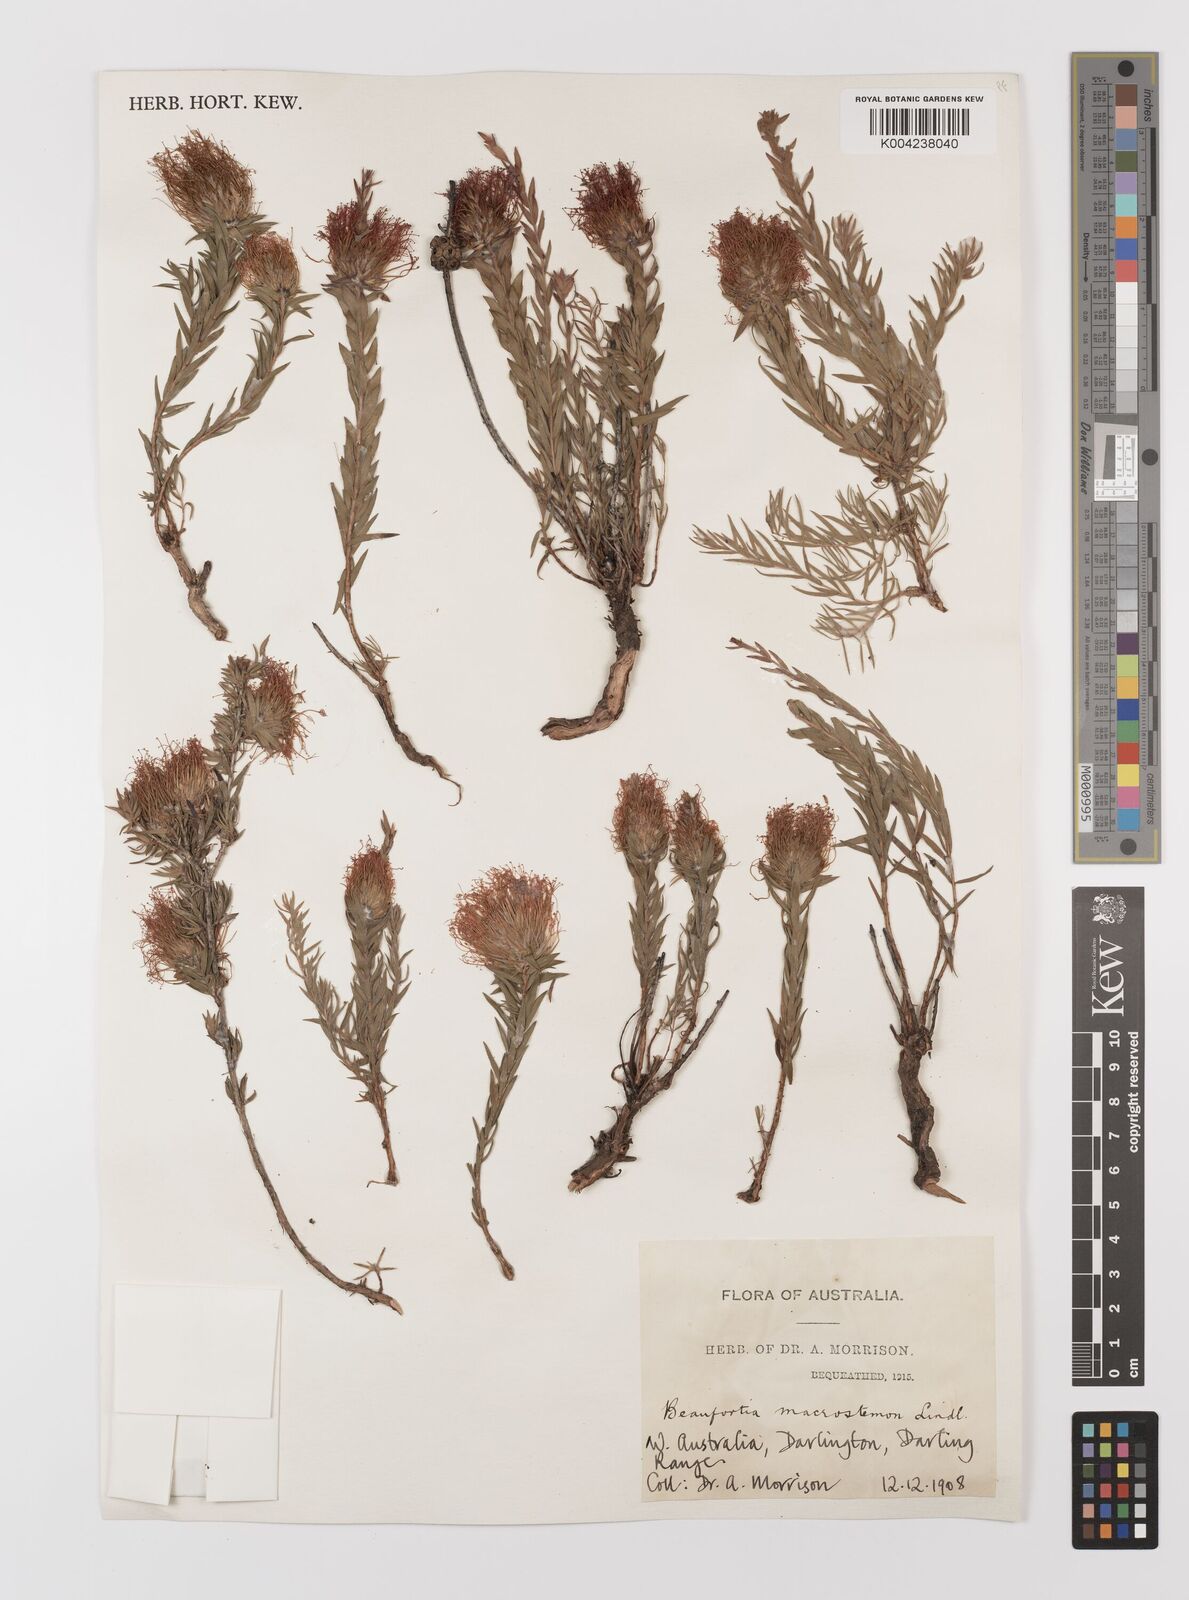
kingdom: Plantae
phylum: Tracheophyta
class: Magnoliopsida
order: Myrtales
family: Myrtaceae
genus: Melaleuca
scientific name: Melaleuca macrostemon
